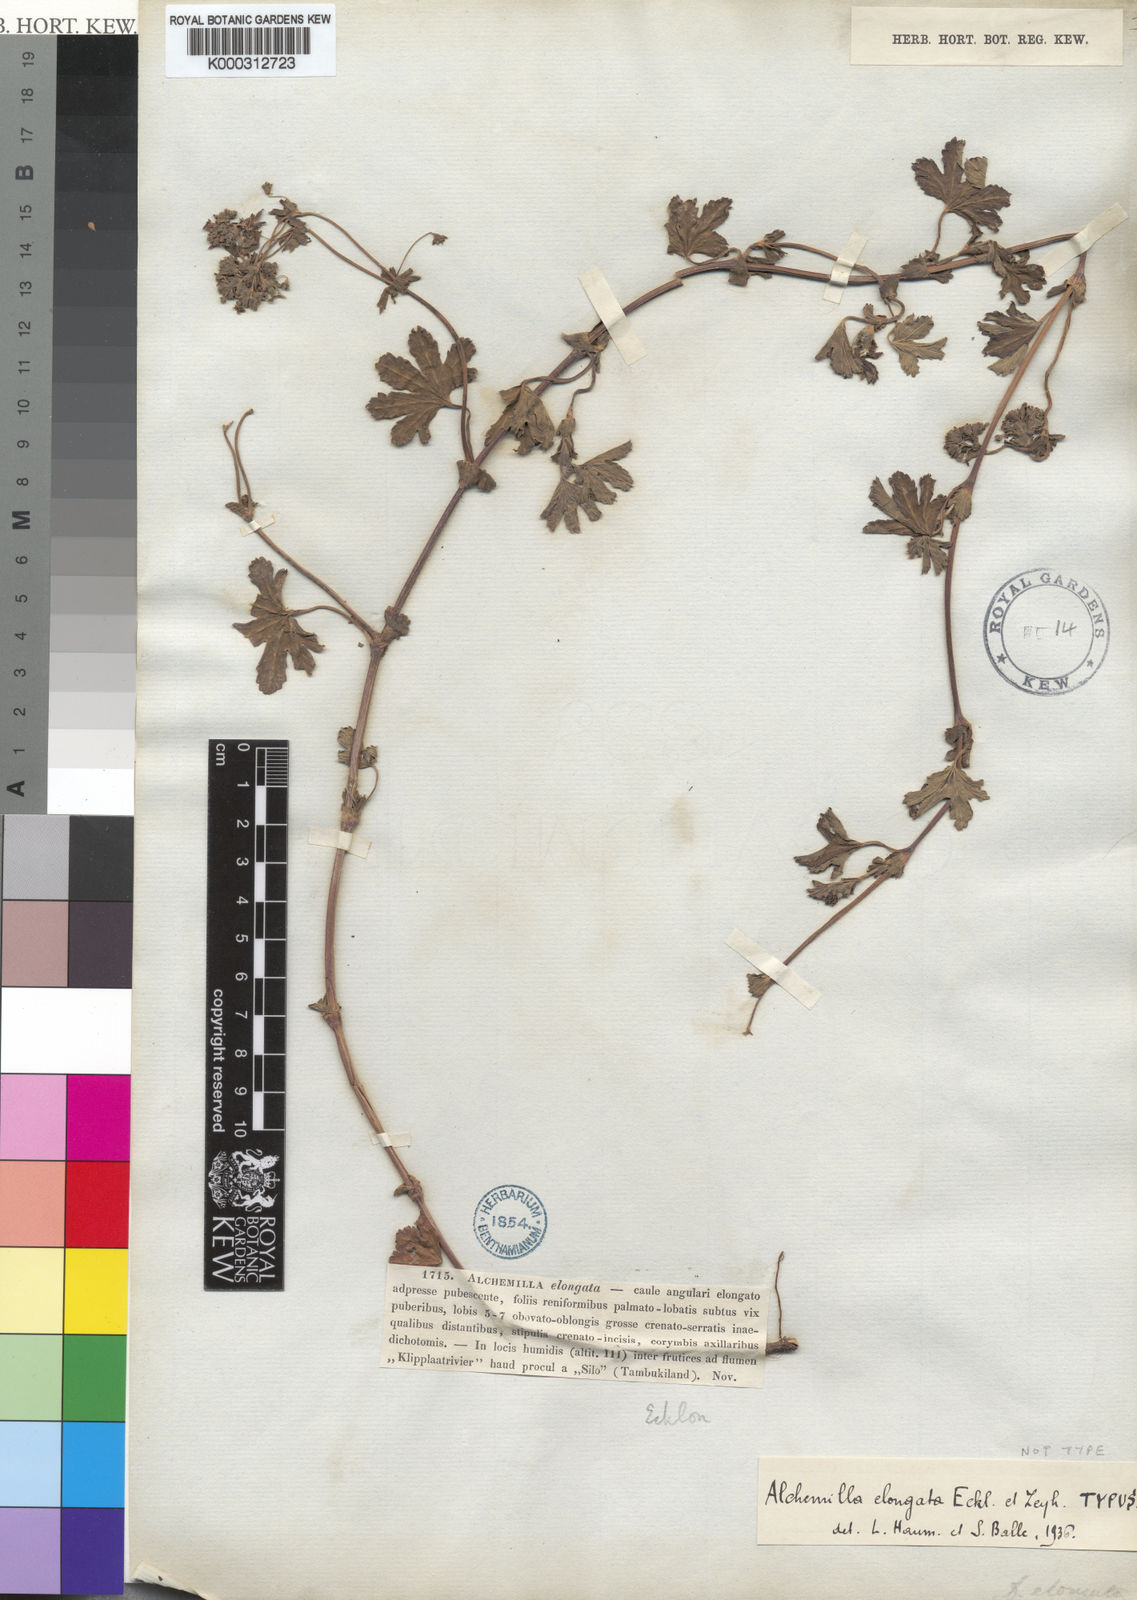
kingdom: Plantae
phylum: Tracheophyta
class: Magnoliopsida
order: Rosales
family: Rosaceae
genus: Alchemilla
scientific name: Alchemilla elongata
